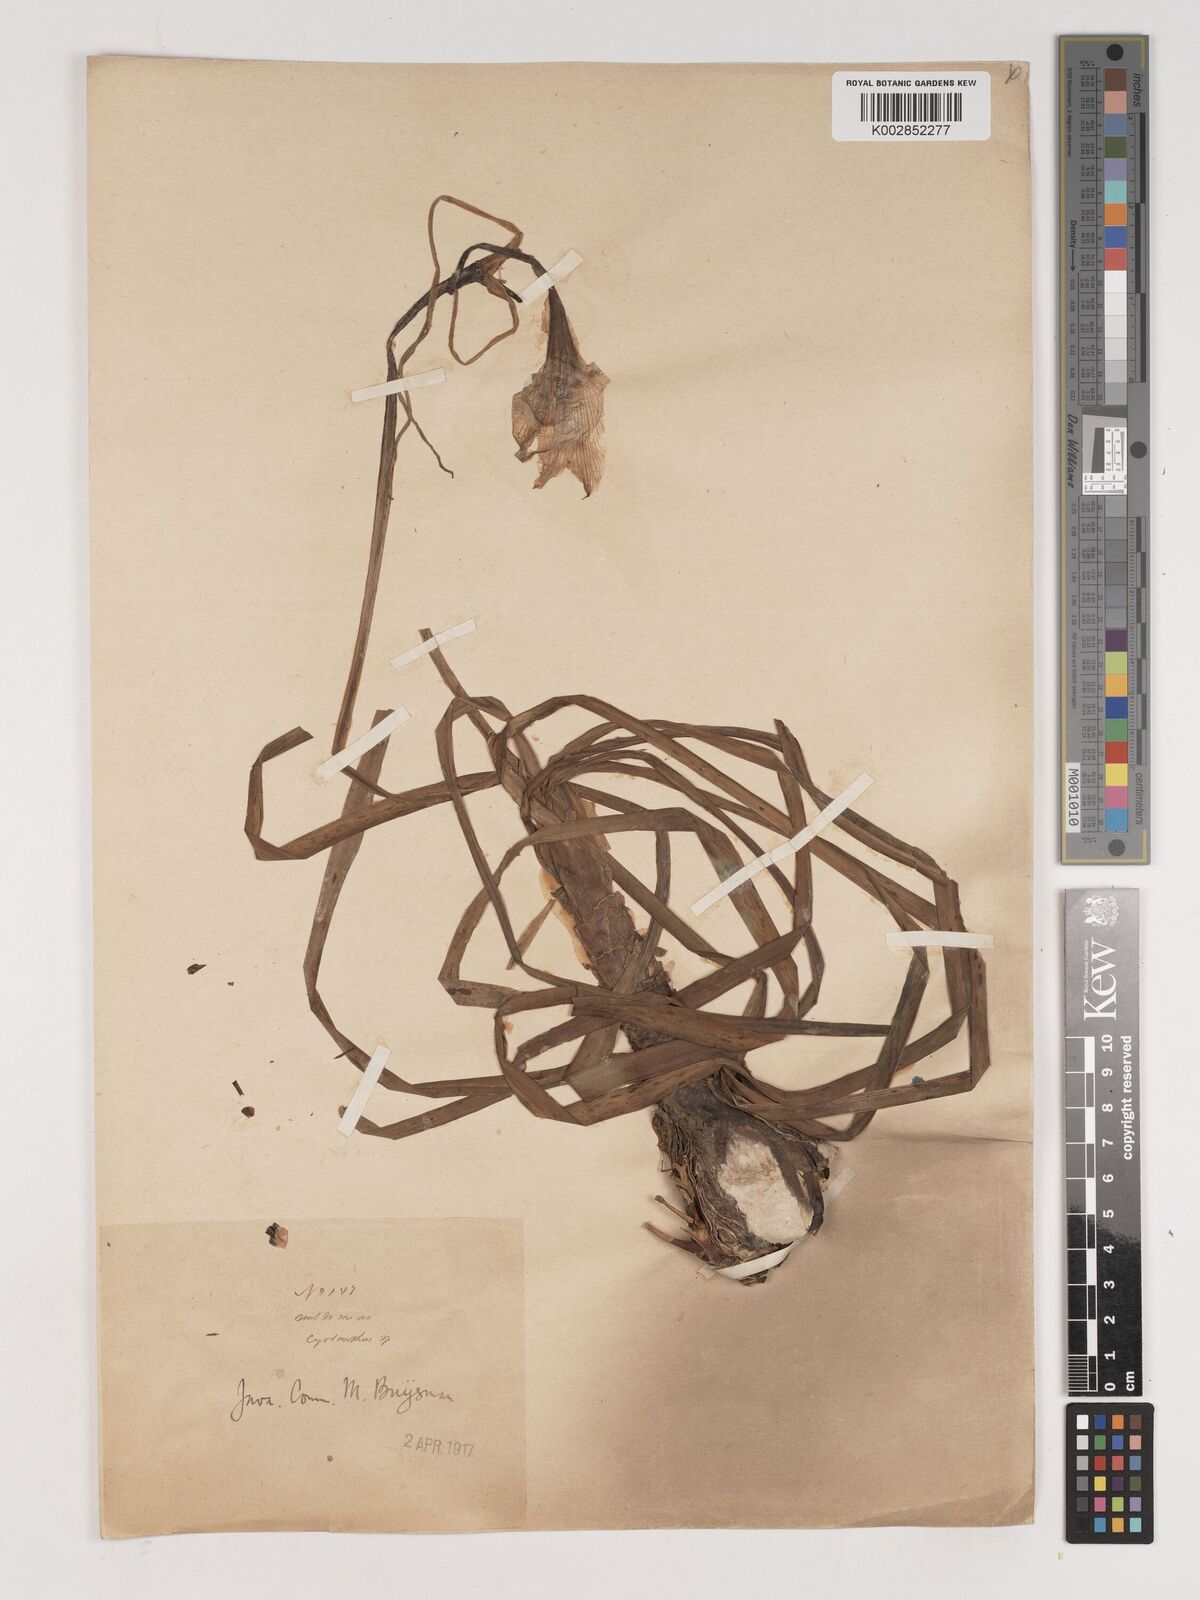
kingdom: Plantae
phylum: Tracheophyta
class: Liliopsida
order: Asparagales
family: Amaryllidaceae
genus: Crinum
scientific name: Crinum
